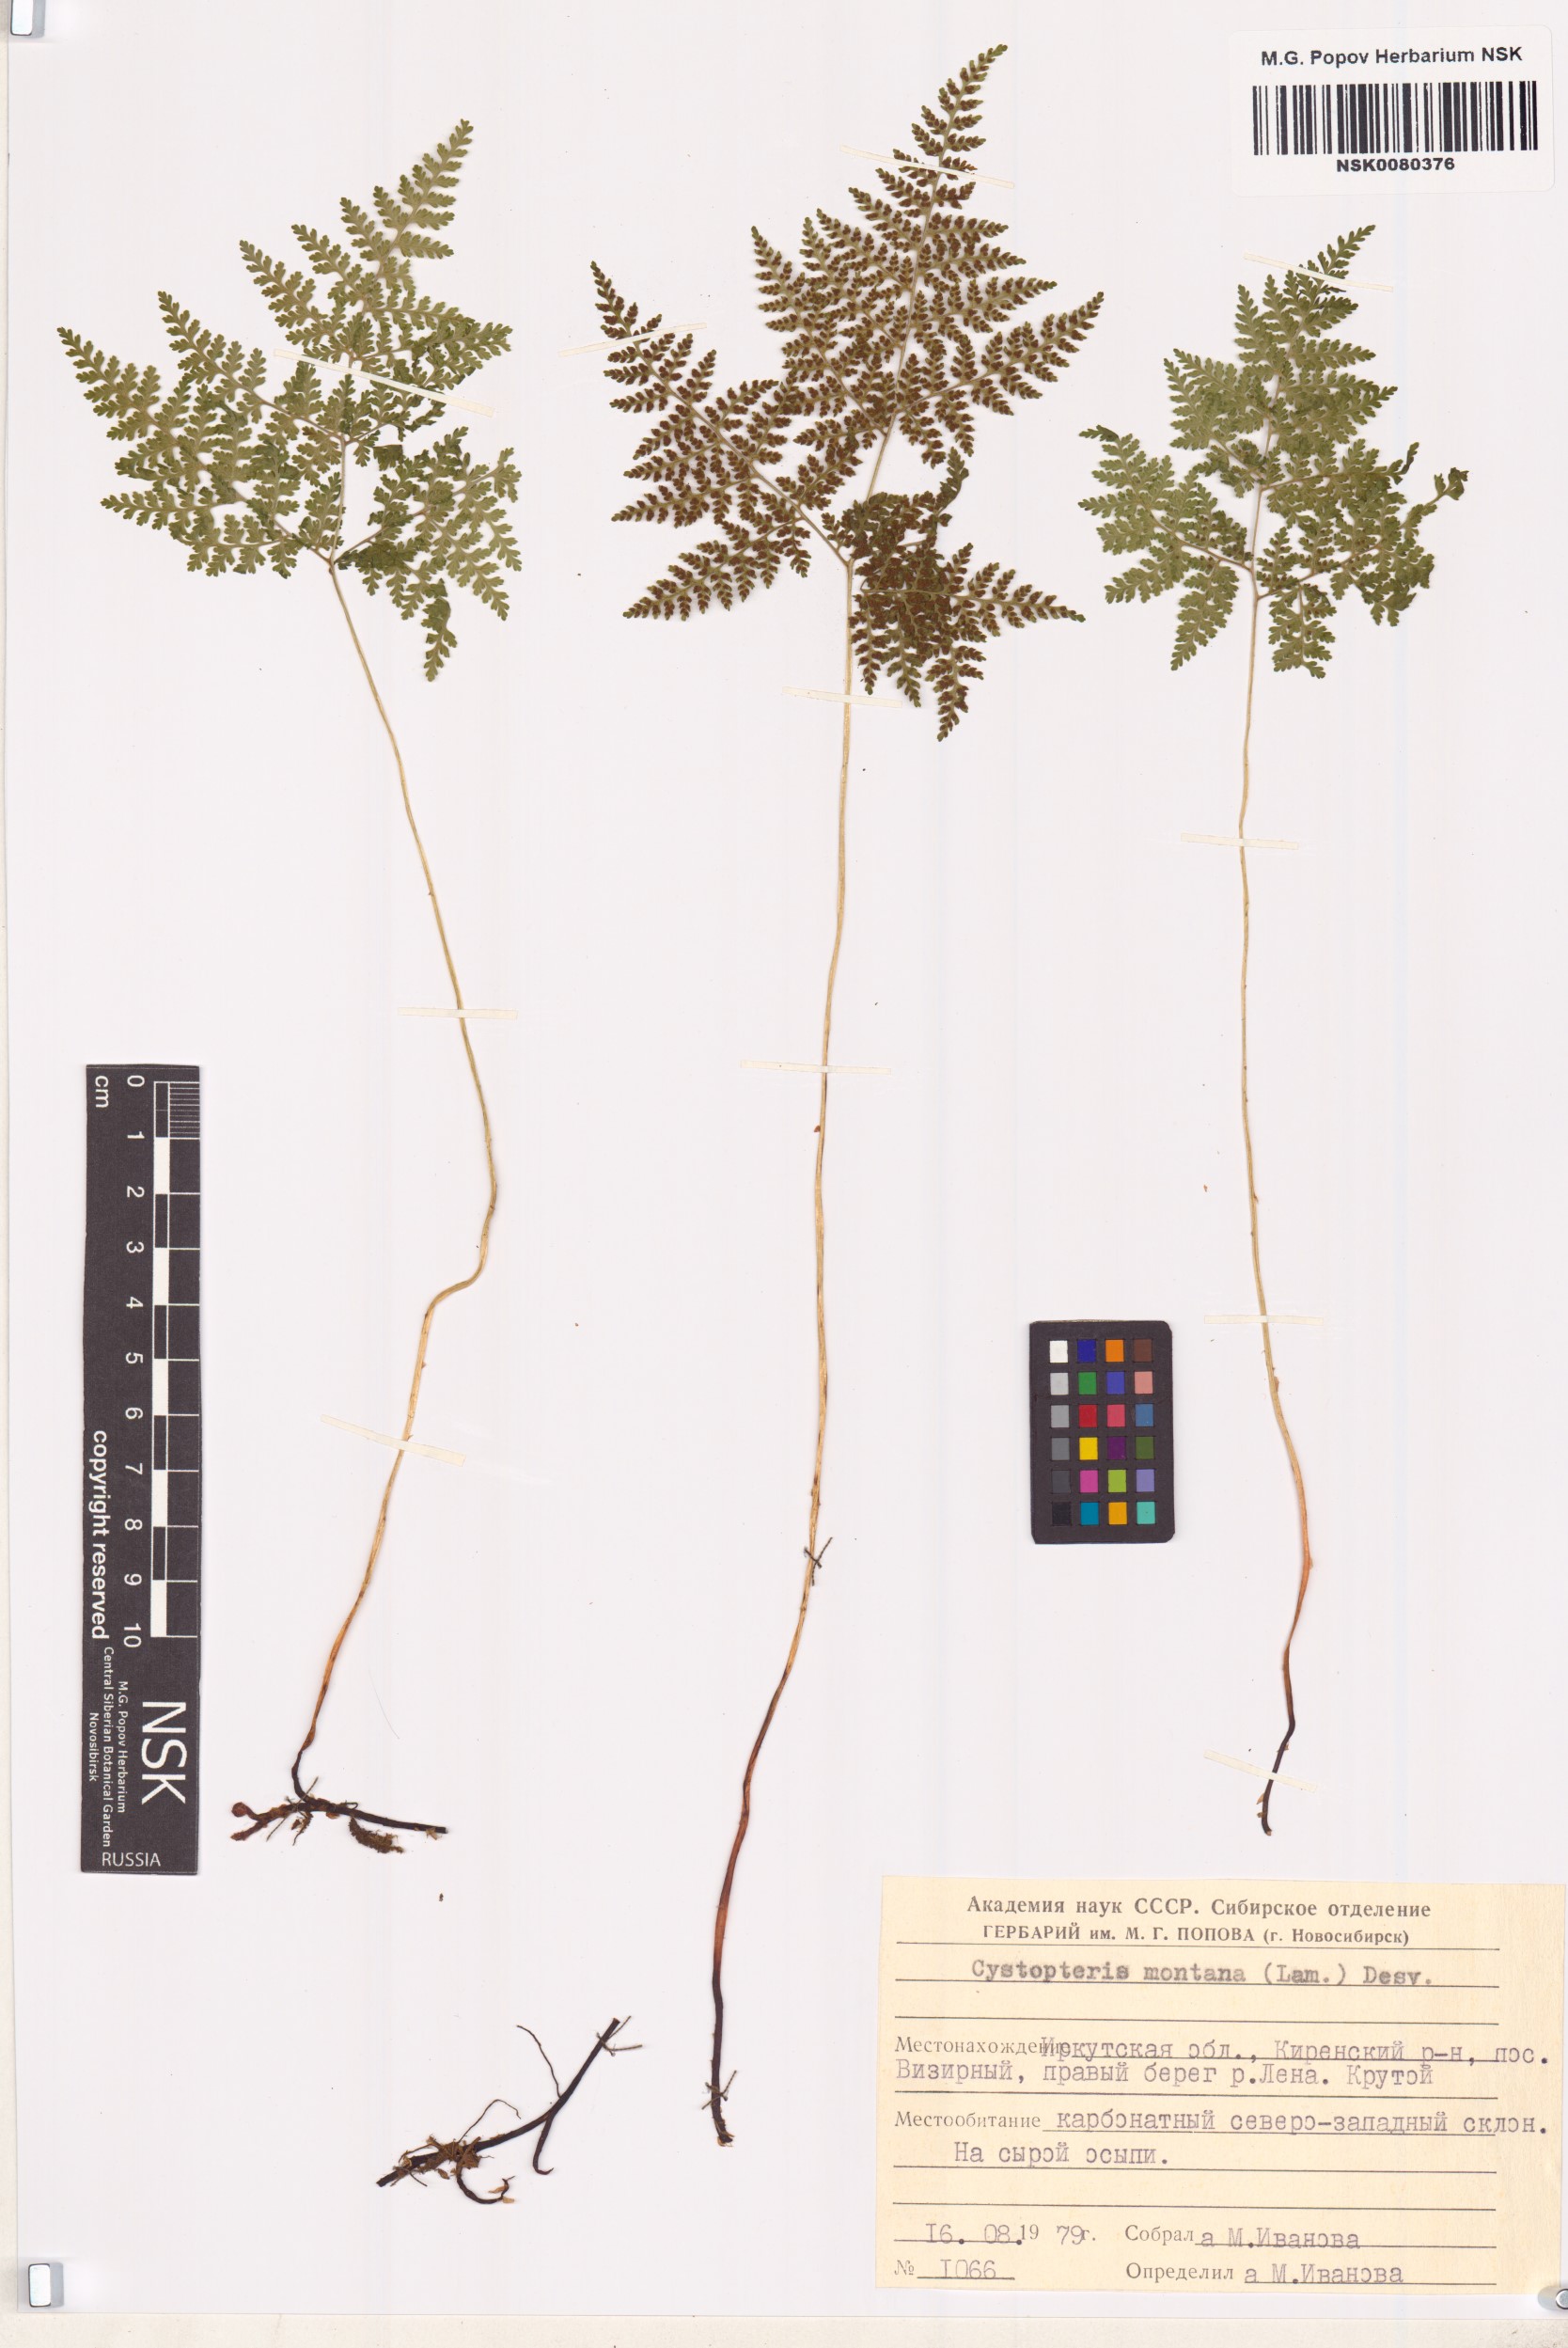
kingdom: Plantae
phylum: Tracheophyta
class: Polypodiopsida
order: Polypodiales
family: Cystopteridaceae
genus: Cystopteris
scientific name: Cystopteris montana
